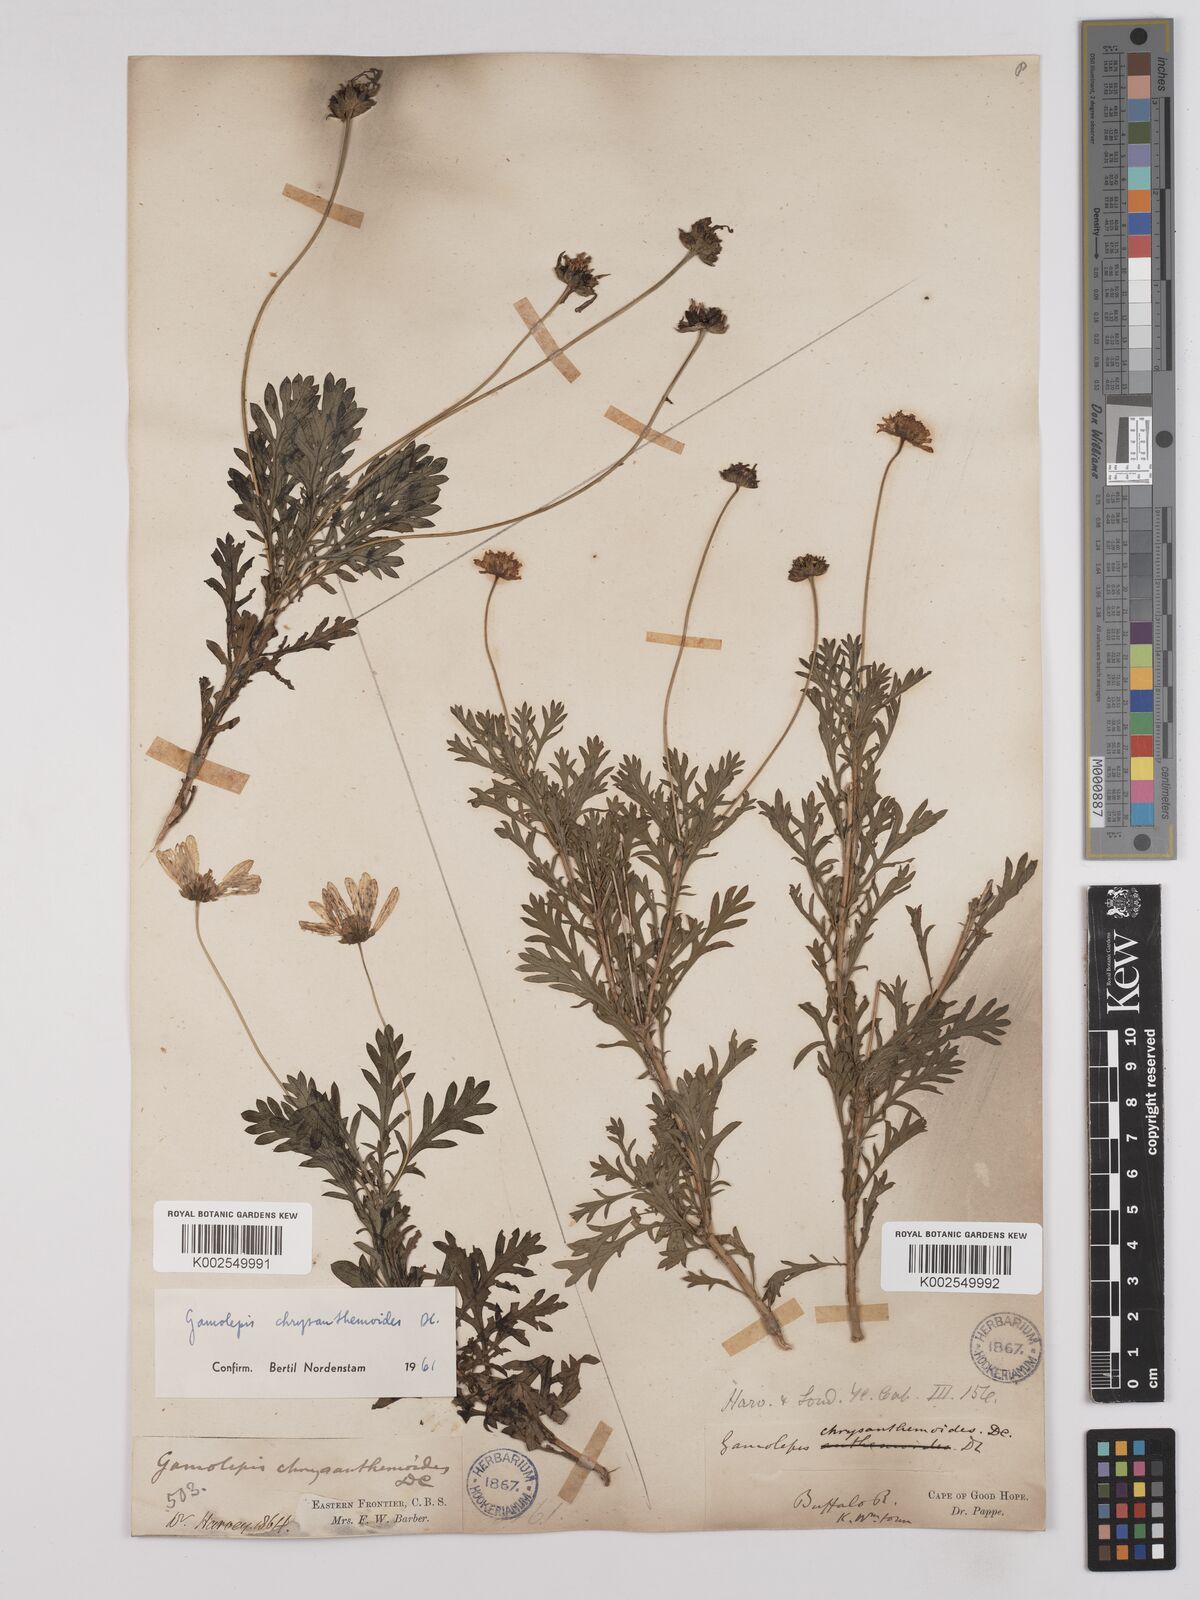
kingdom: Plantae
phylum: Tracheophyta
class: Magnoliopsida
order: Asterales
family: Asteraceae
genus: Euryops
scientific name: Euryops chrysanthemoides
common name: Bull's eye
